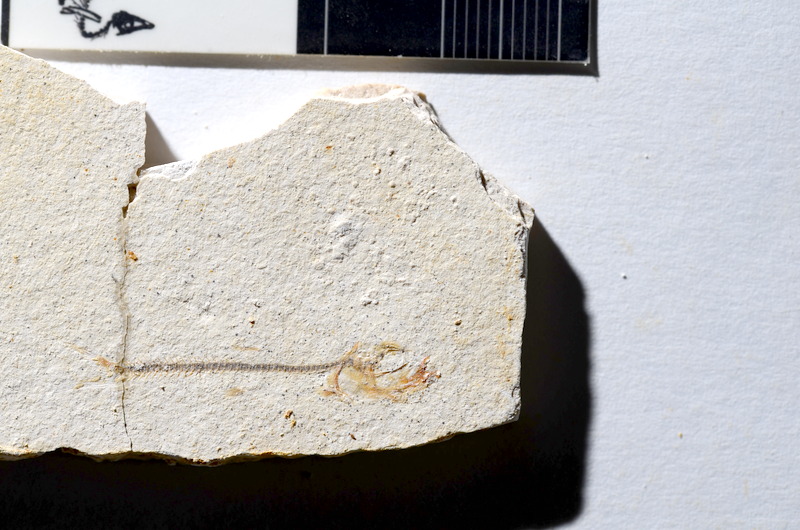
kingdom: Animalia
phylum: Chordata
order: Salmoniformes
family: Orthogonikleithridae
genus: Orthogonikleithrus
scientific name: Orthogonikleithrus hoelli
